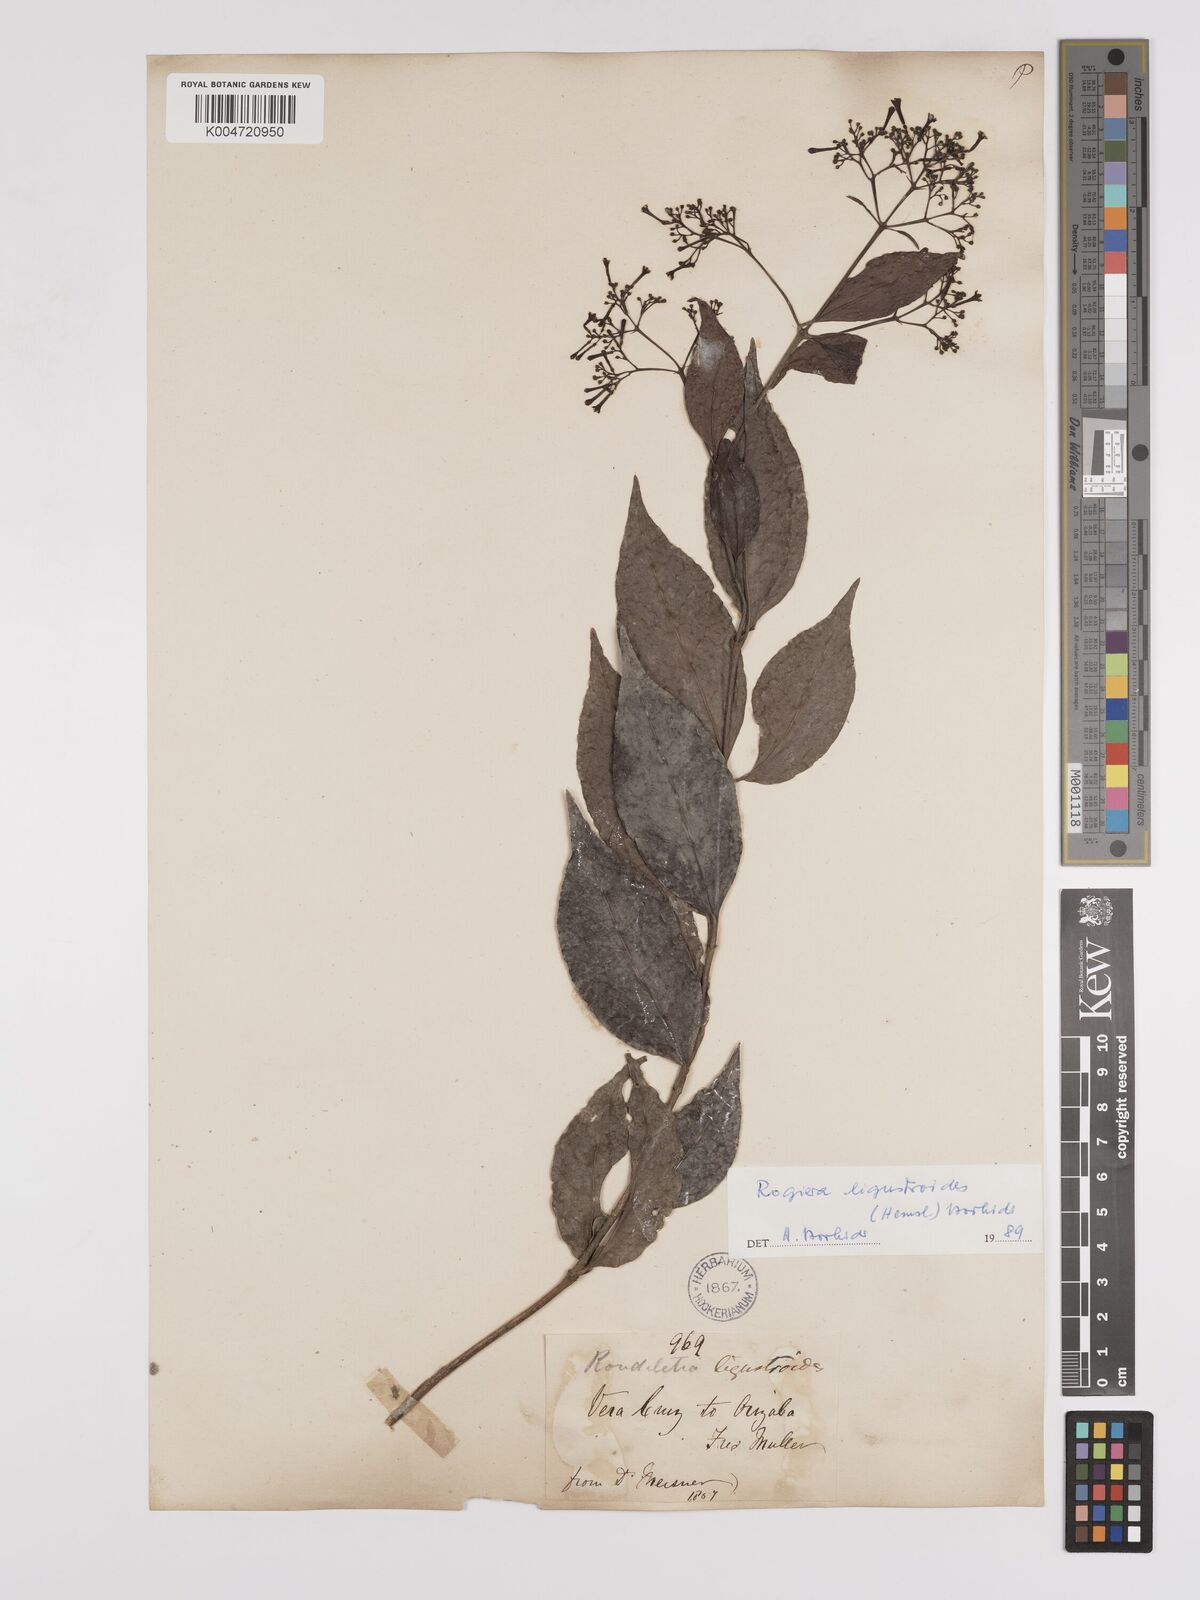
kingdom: Plantae
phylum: Tracheophyta
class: Magnoliopsida
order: Gentianales
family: Rubiaceae
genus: Rogiera
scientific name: Rogiera ligustroides
